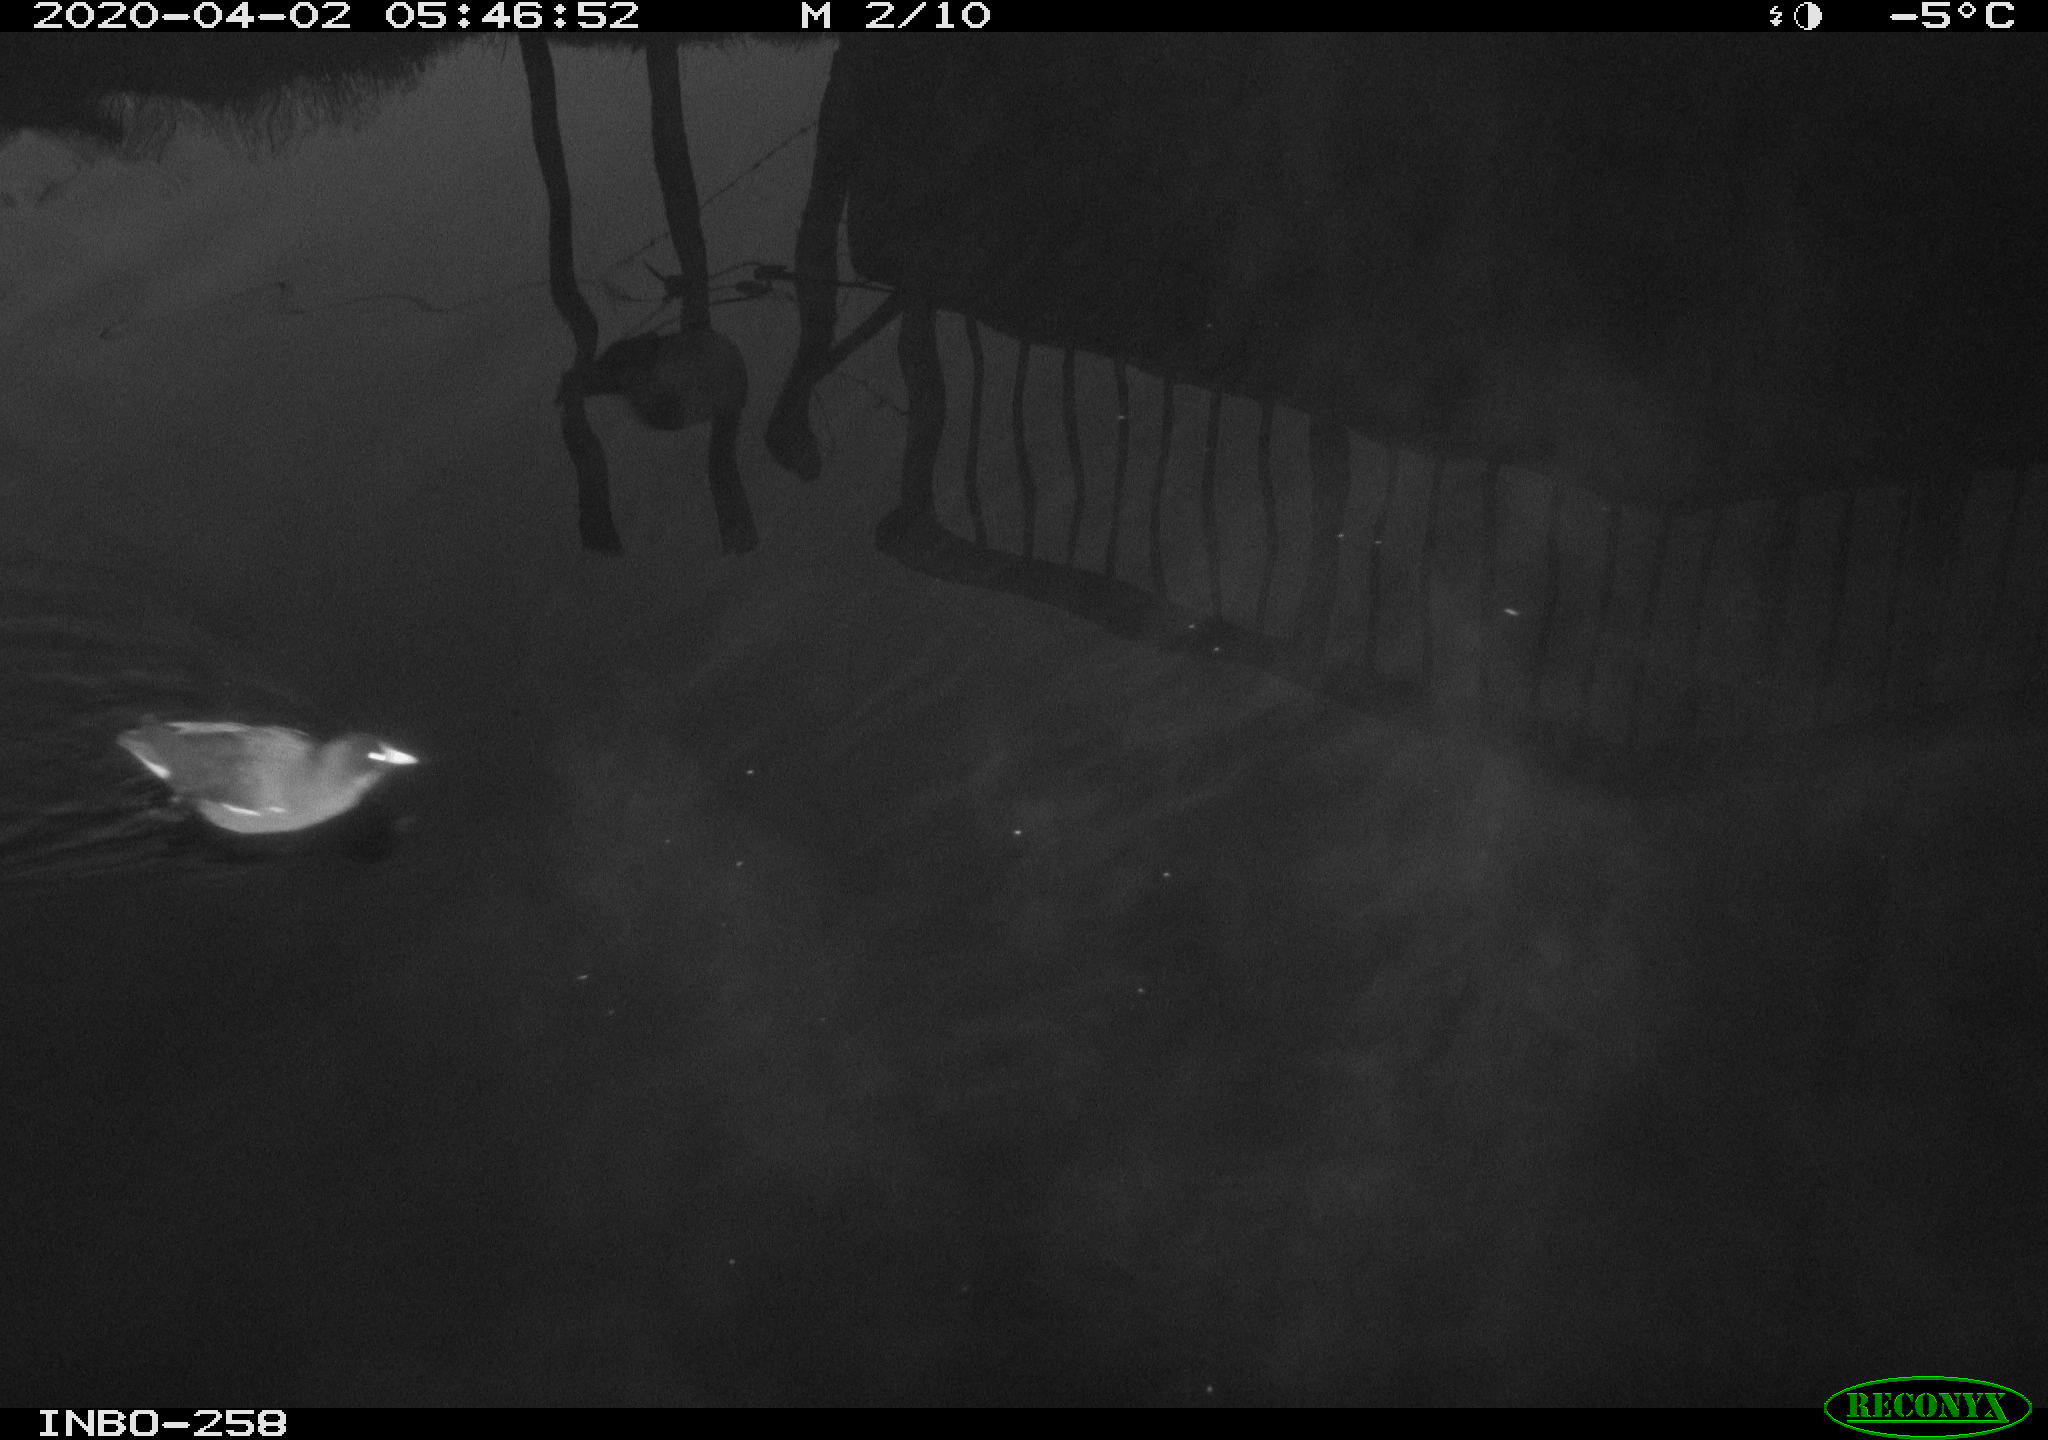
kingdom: Animalia
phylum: Chordata
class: Aves
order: Gruiformes
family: Rallidae
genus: Gallinula
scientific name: Gallinula chloropus
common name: Common moorhen
